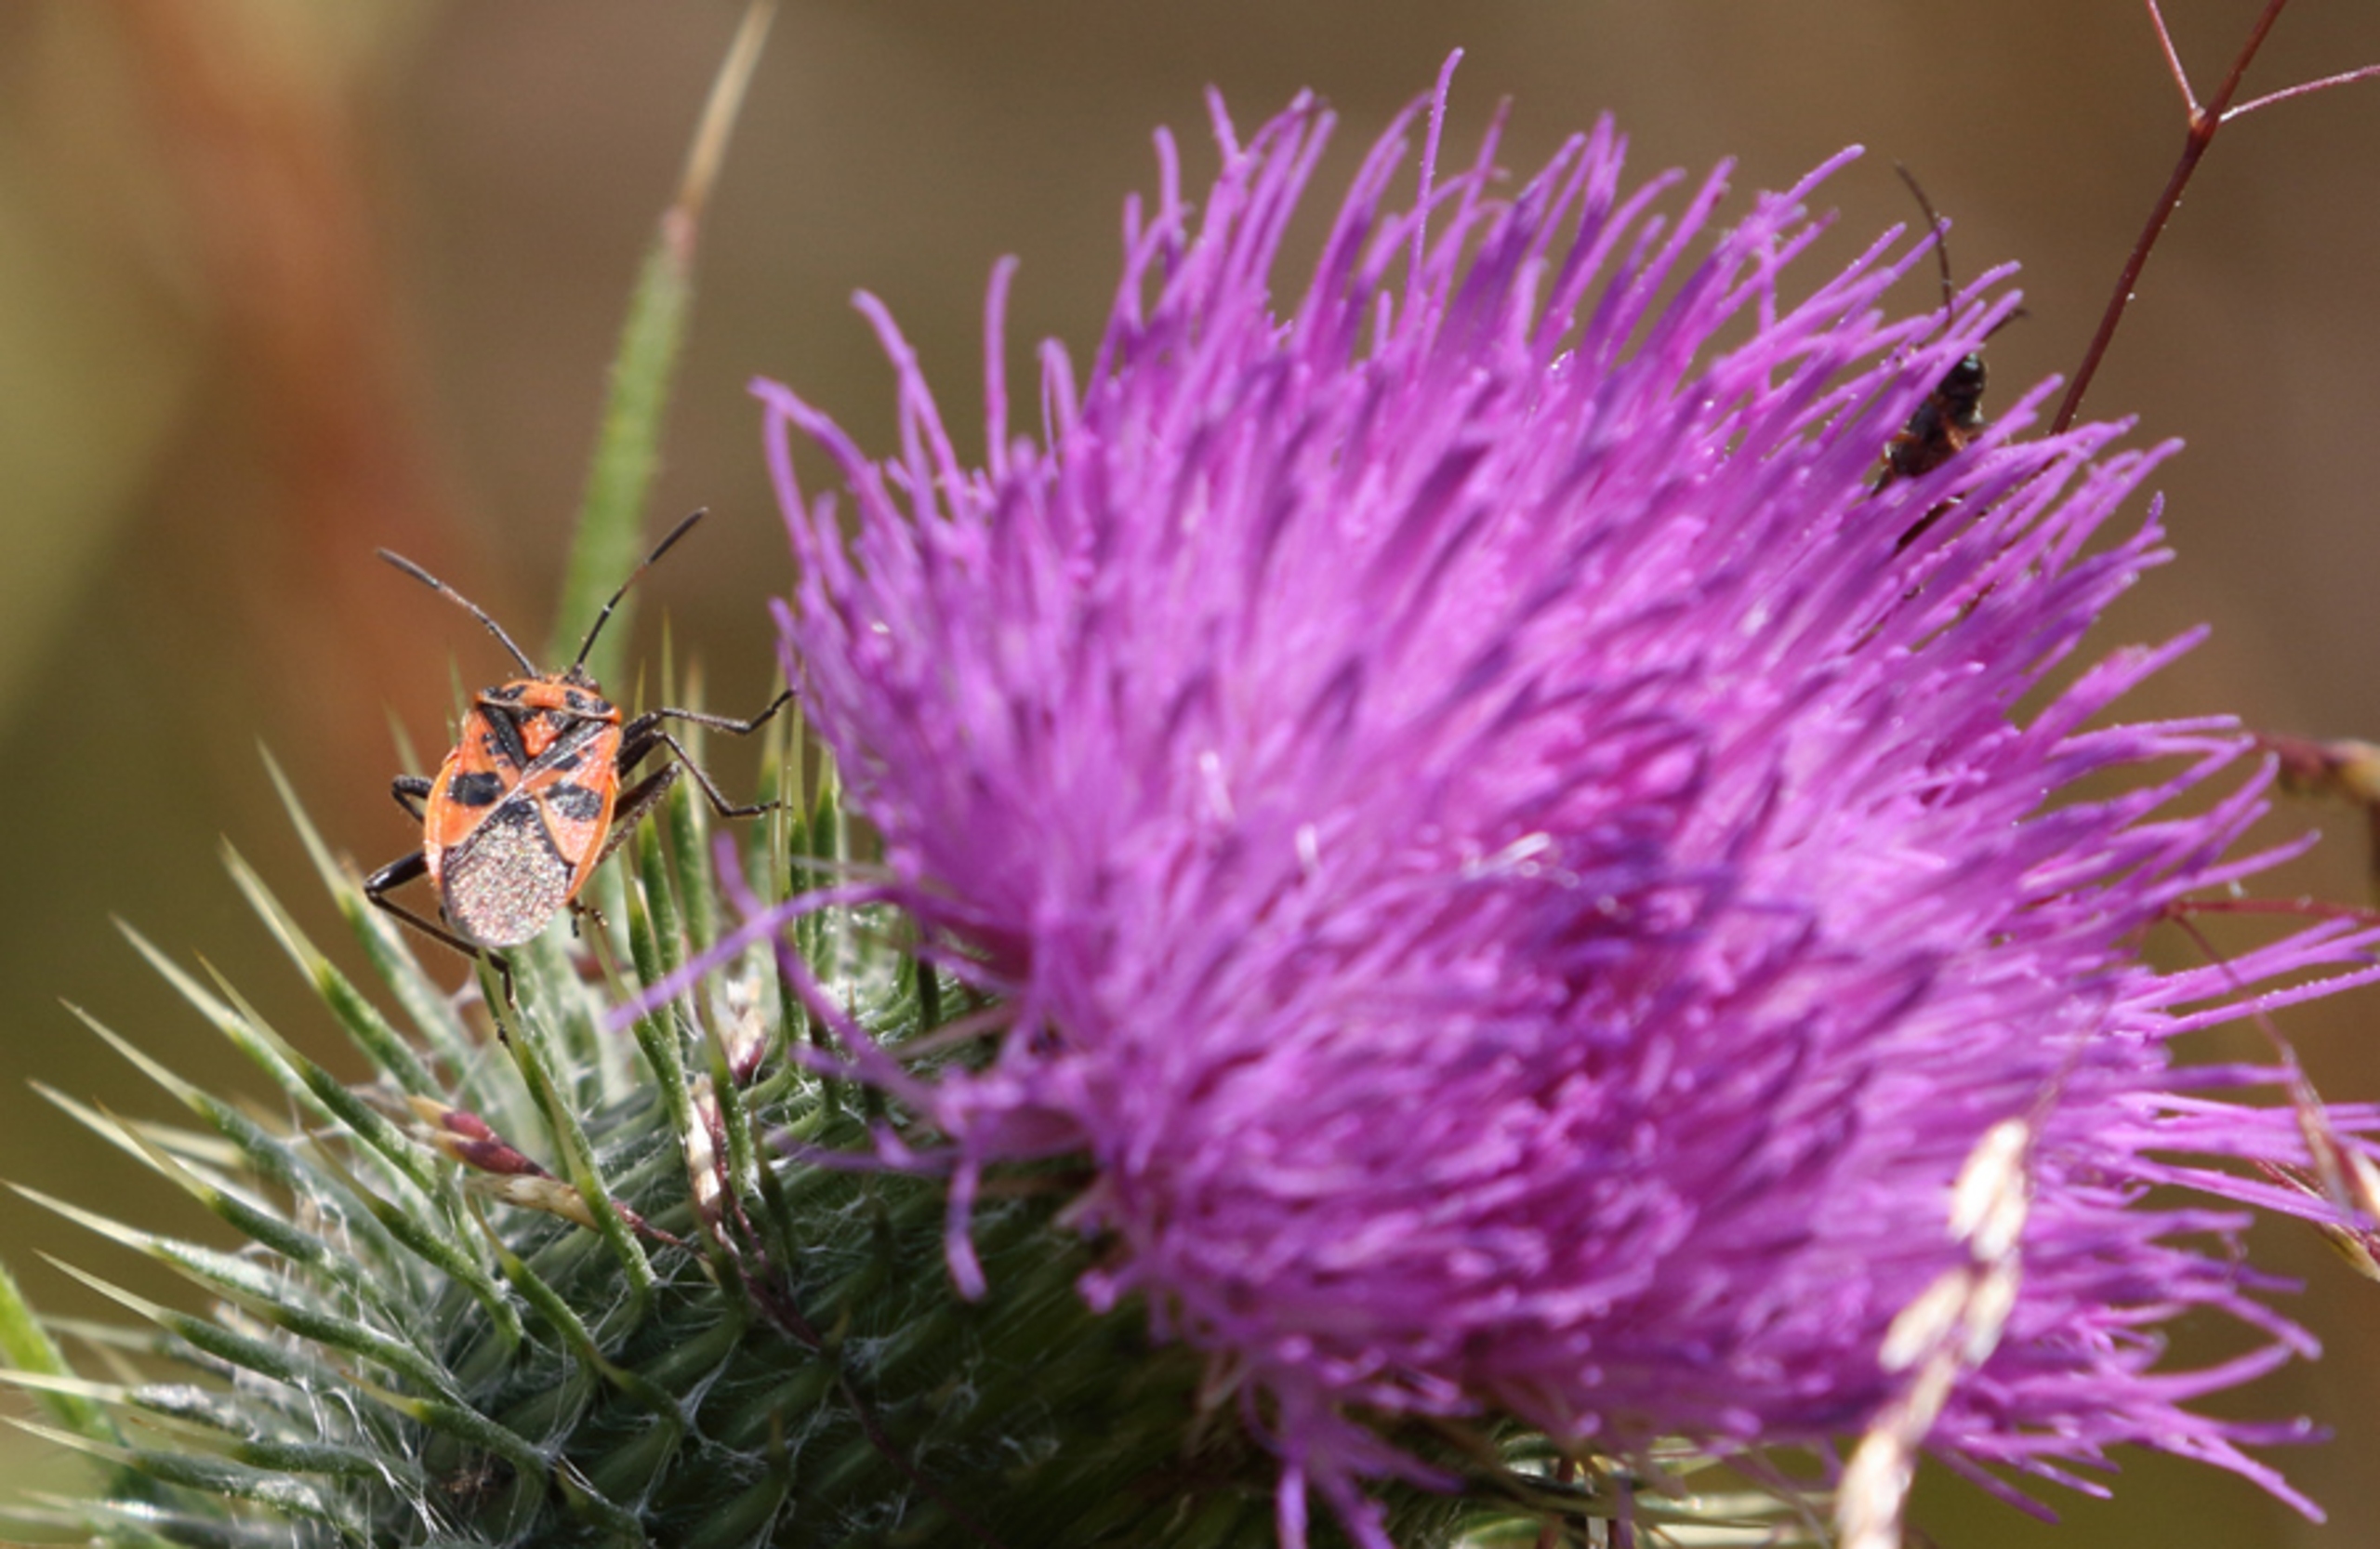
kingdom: Animalia
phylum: Arthropoda
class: Insecta
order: Hemiptera
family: Rhopalidae
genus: Corizus
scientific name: Corizus hyoscyami
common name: Rød kanttæge
